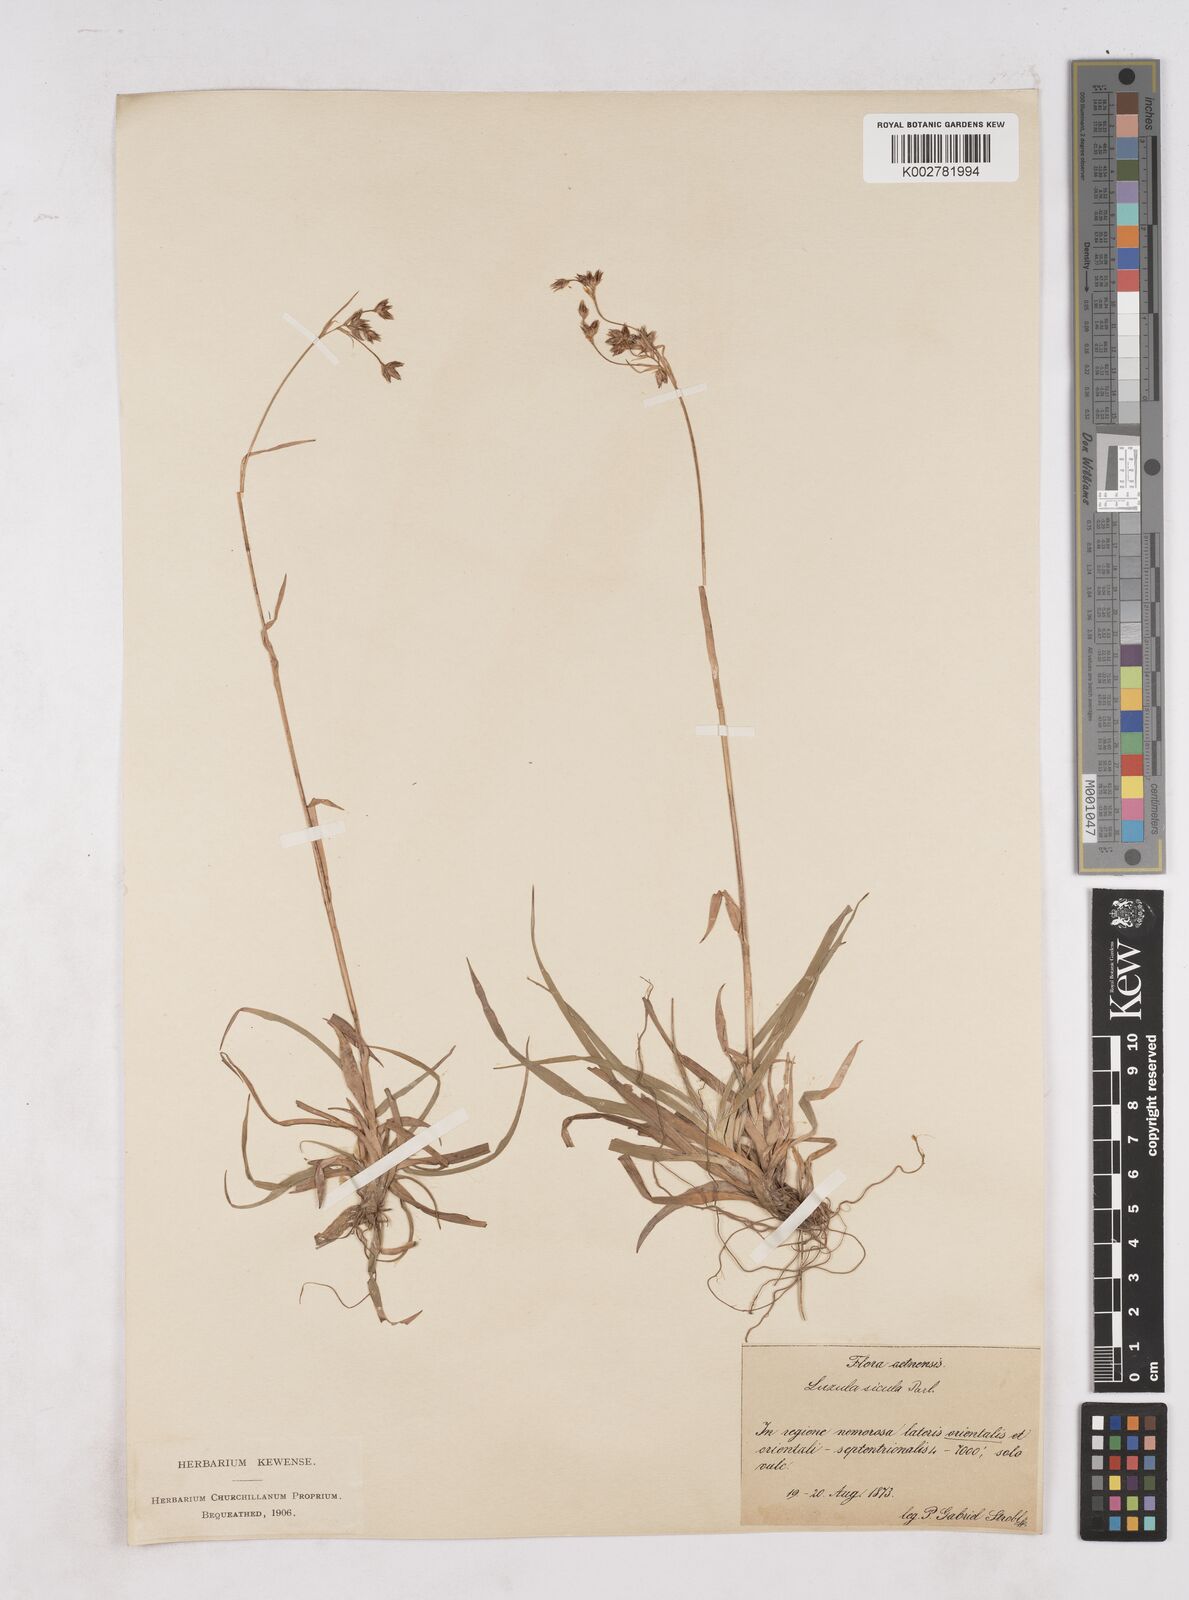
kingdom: Plantae
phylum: Tracheophyta
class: Liliopsida
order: Poales
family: Juncaceae
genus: Luzula
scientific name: Luzula sylvatica
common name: Great wood-rush
